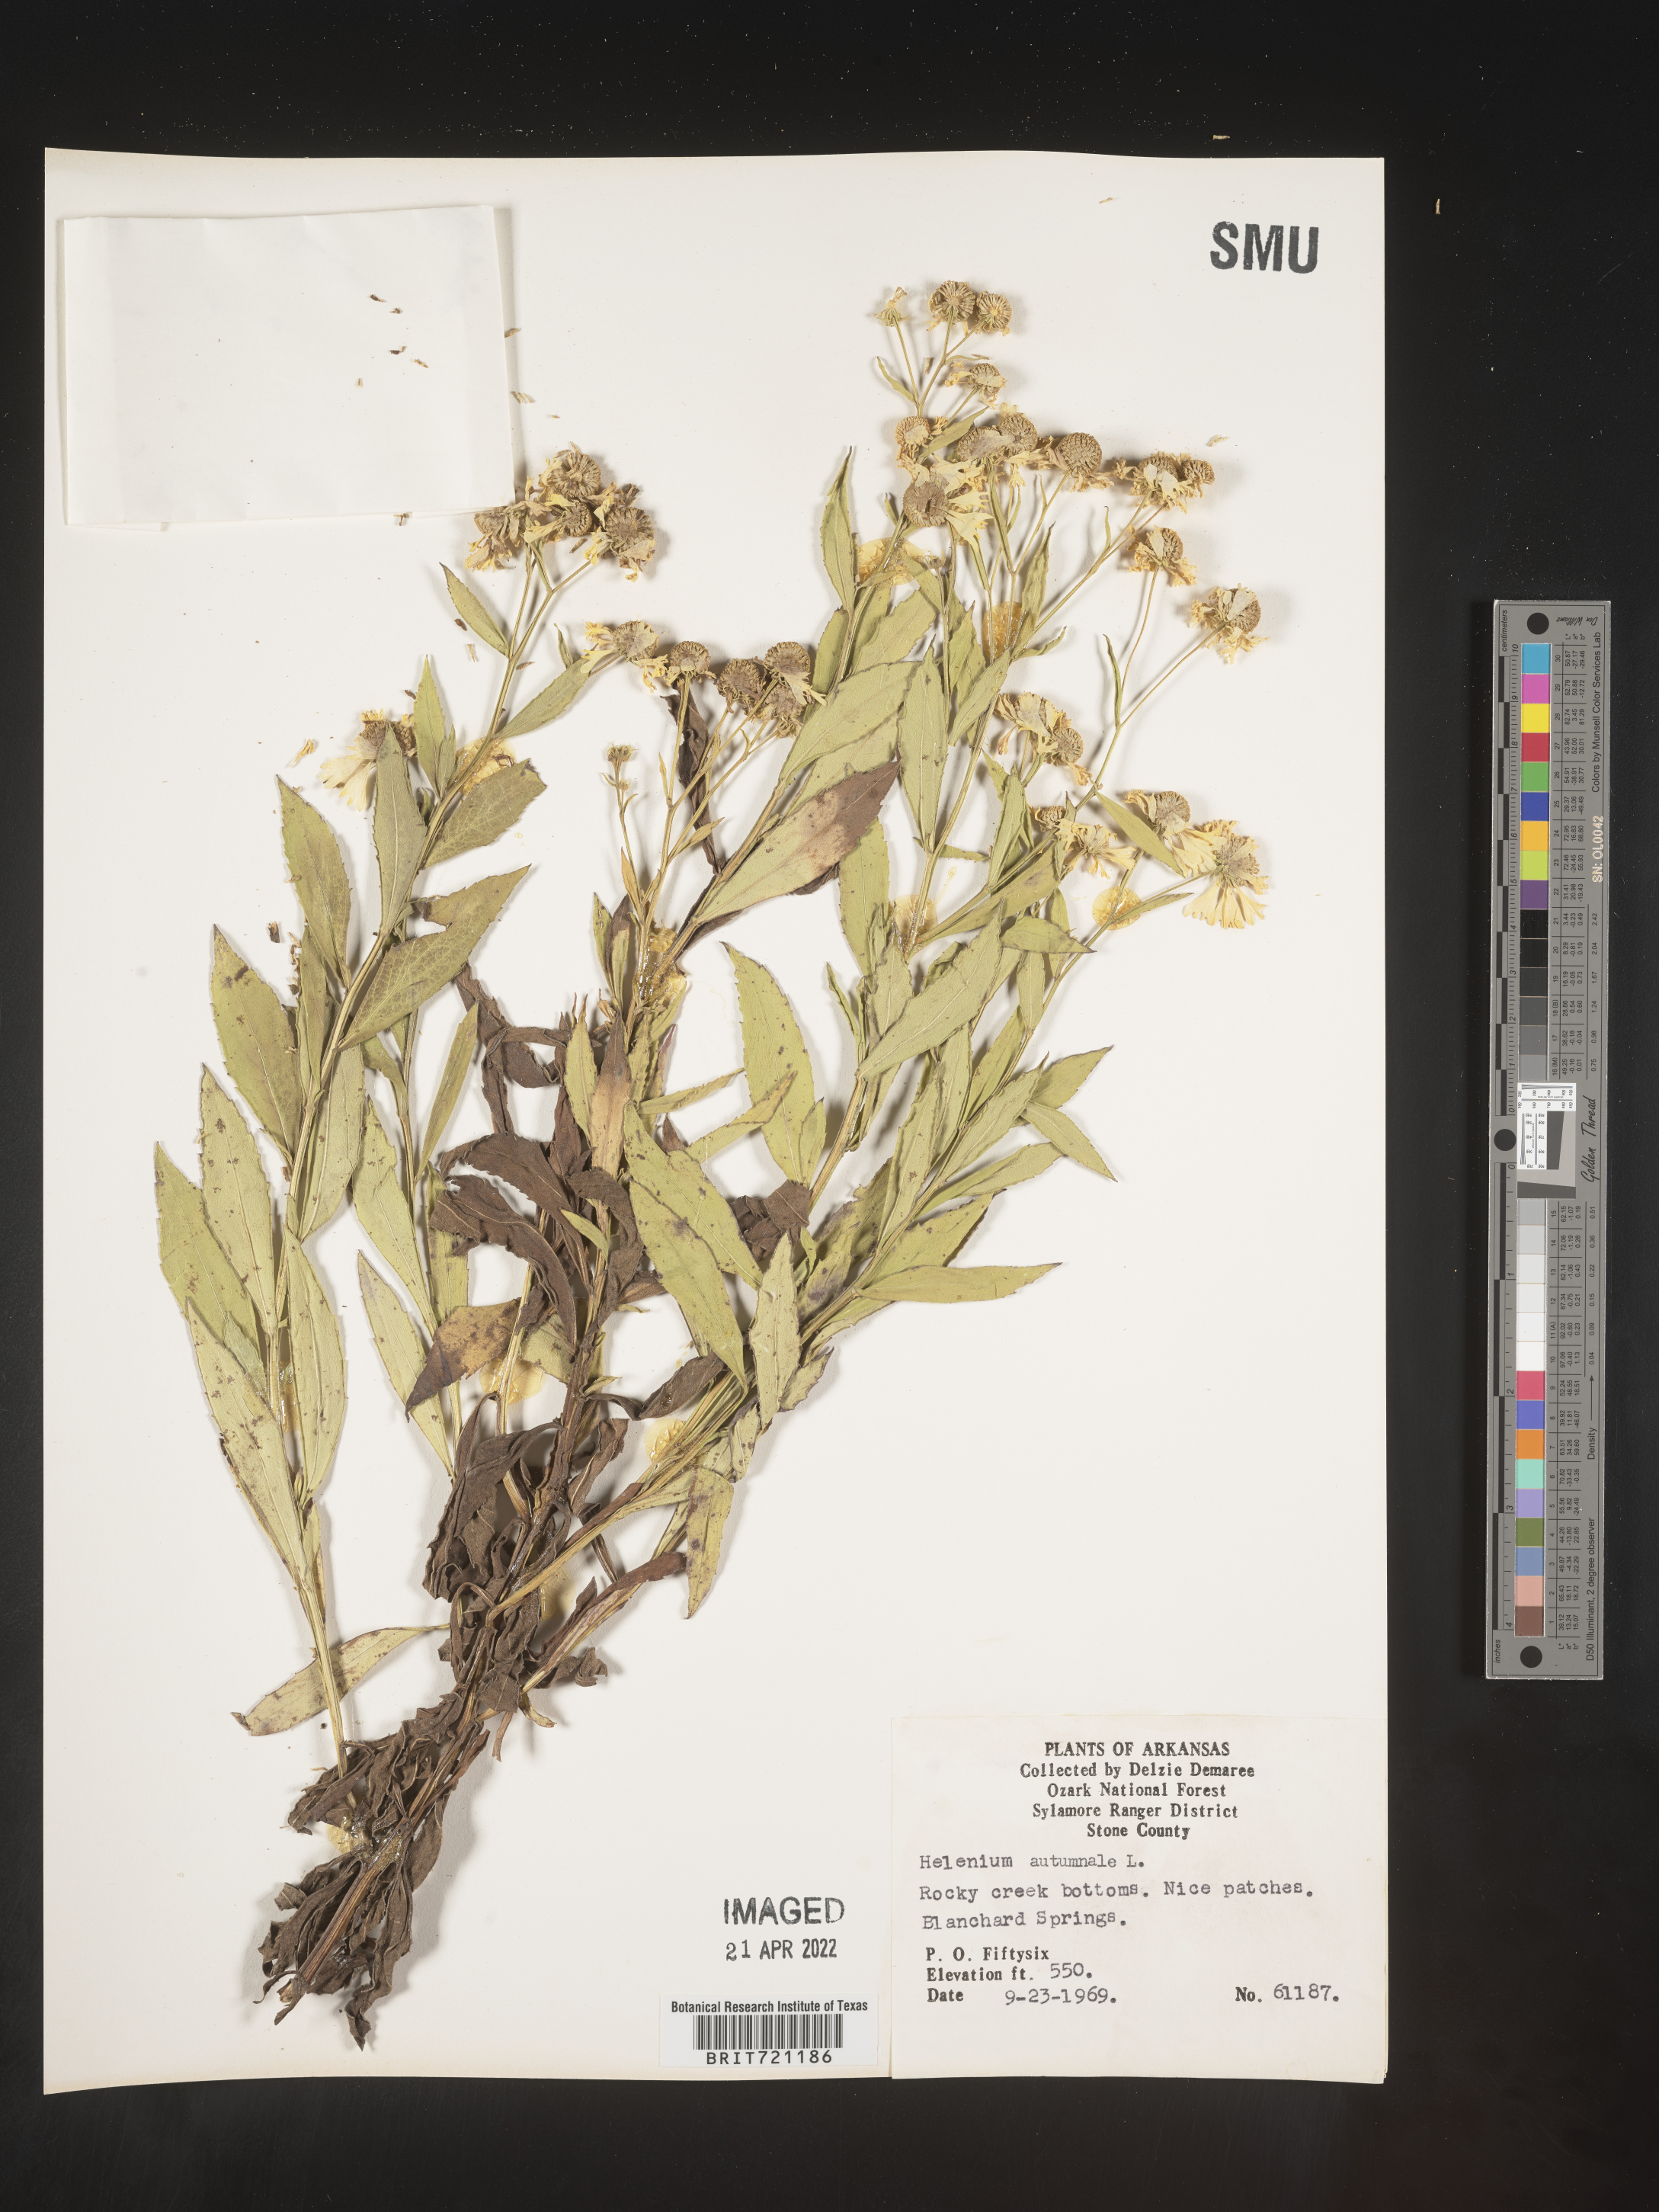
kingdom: Plantae
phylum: Tracheophyta
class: Magnoliopsida
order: Asterales
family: Asteraceae
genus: Helenium
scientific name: Helenium autumnale
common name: Sneezeweed
